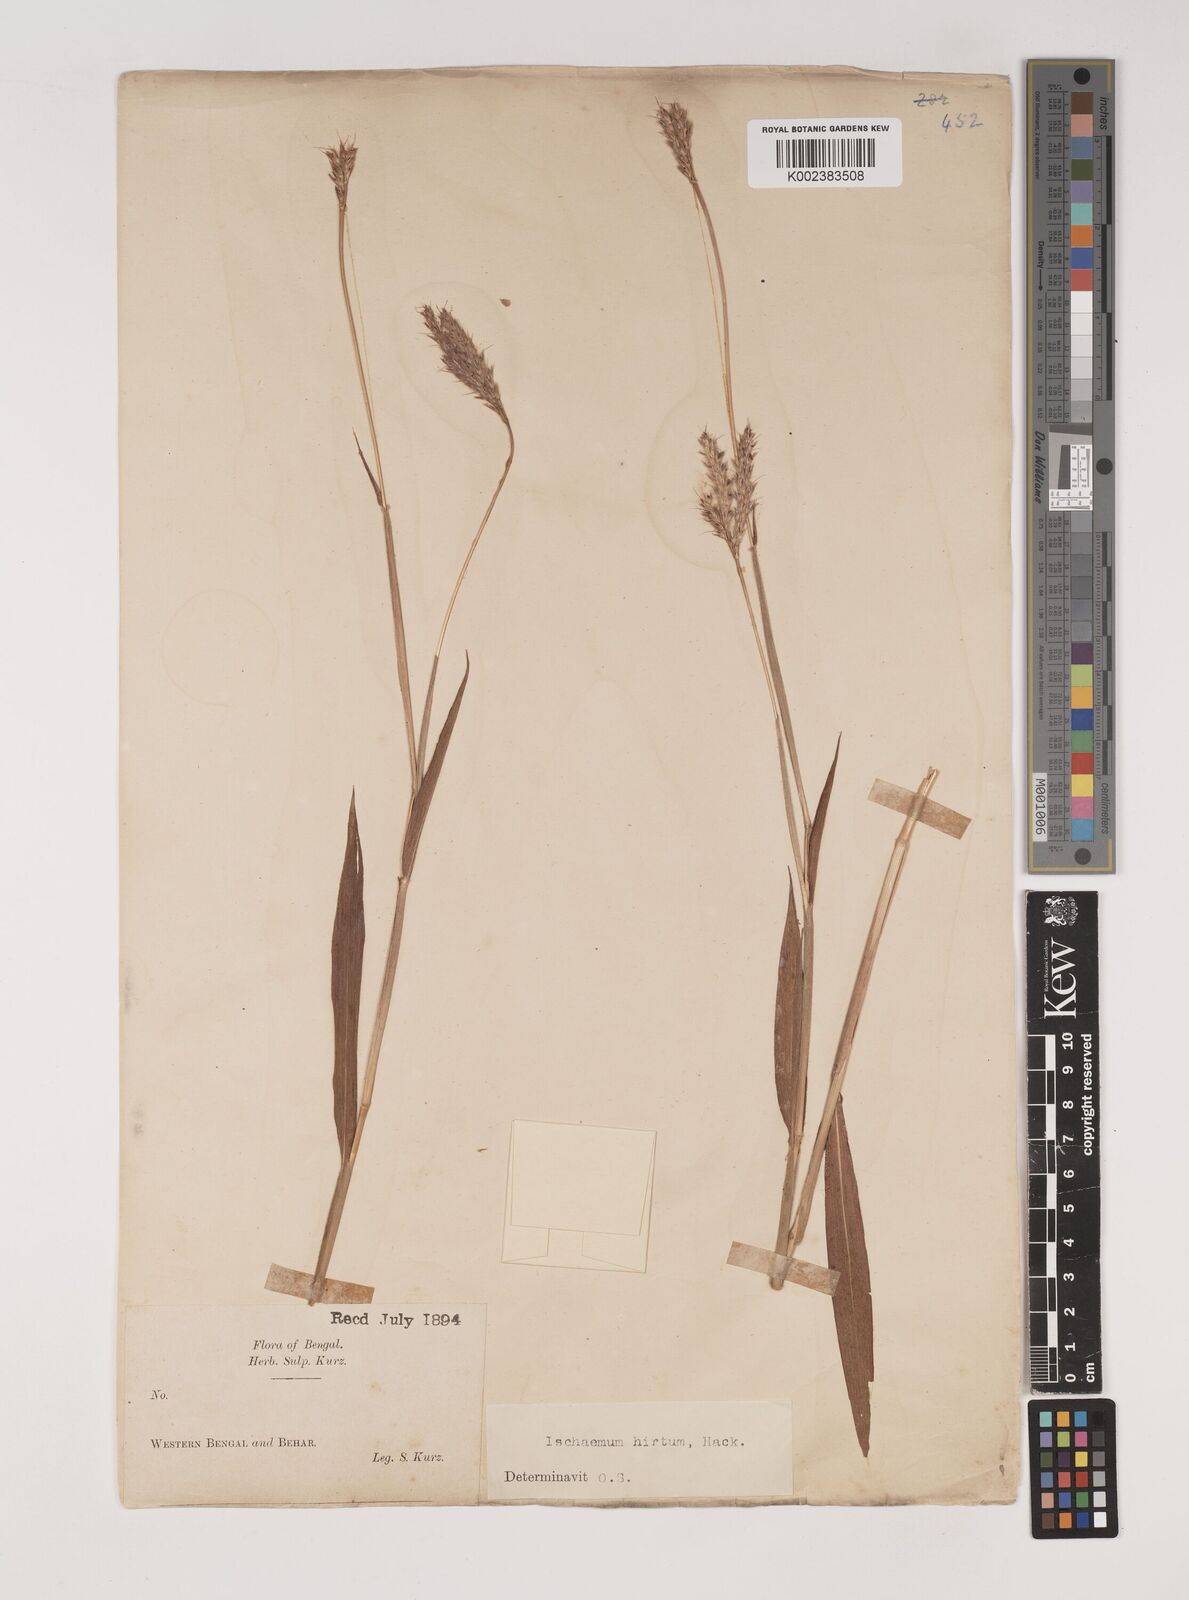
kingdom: Plantae
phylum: Tracheophyta
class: Liliopsida
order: Poales
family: Poaceae
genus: Ischaemum
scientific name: Ischaemum
